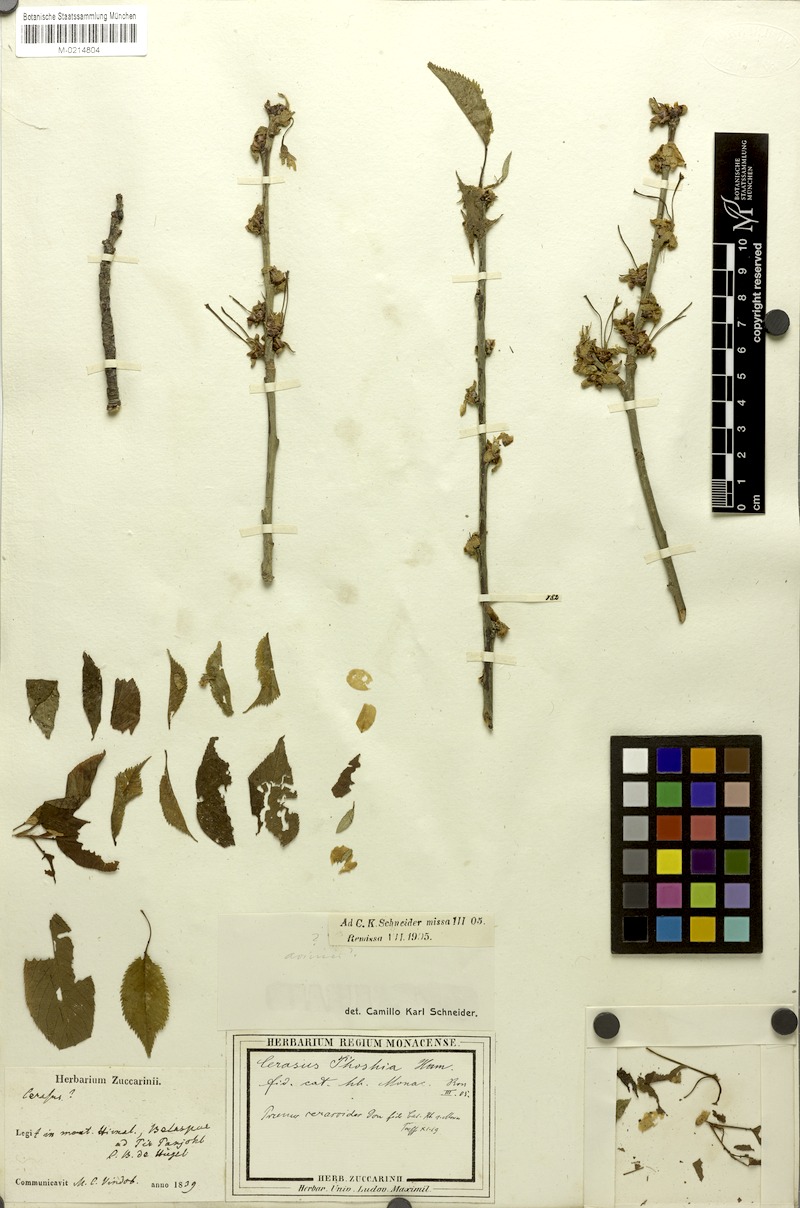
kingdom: Plantae
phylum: Tracheophyta
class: Magnoliopsida
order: Rosales
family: Rosaceae
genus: Prunus
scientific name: Prunus cerasoides
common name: Wild himalayan cherry
